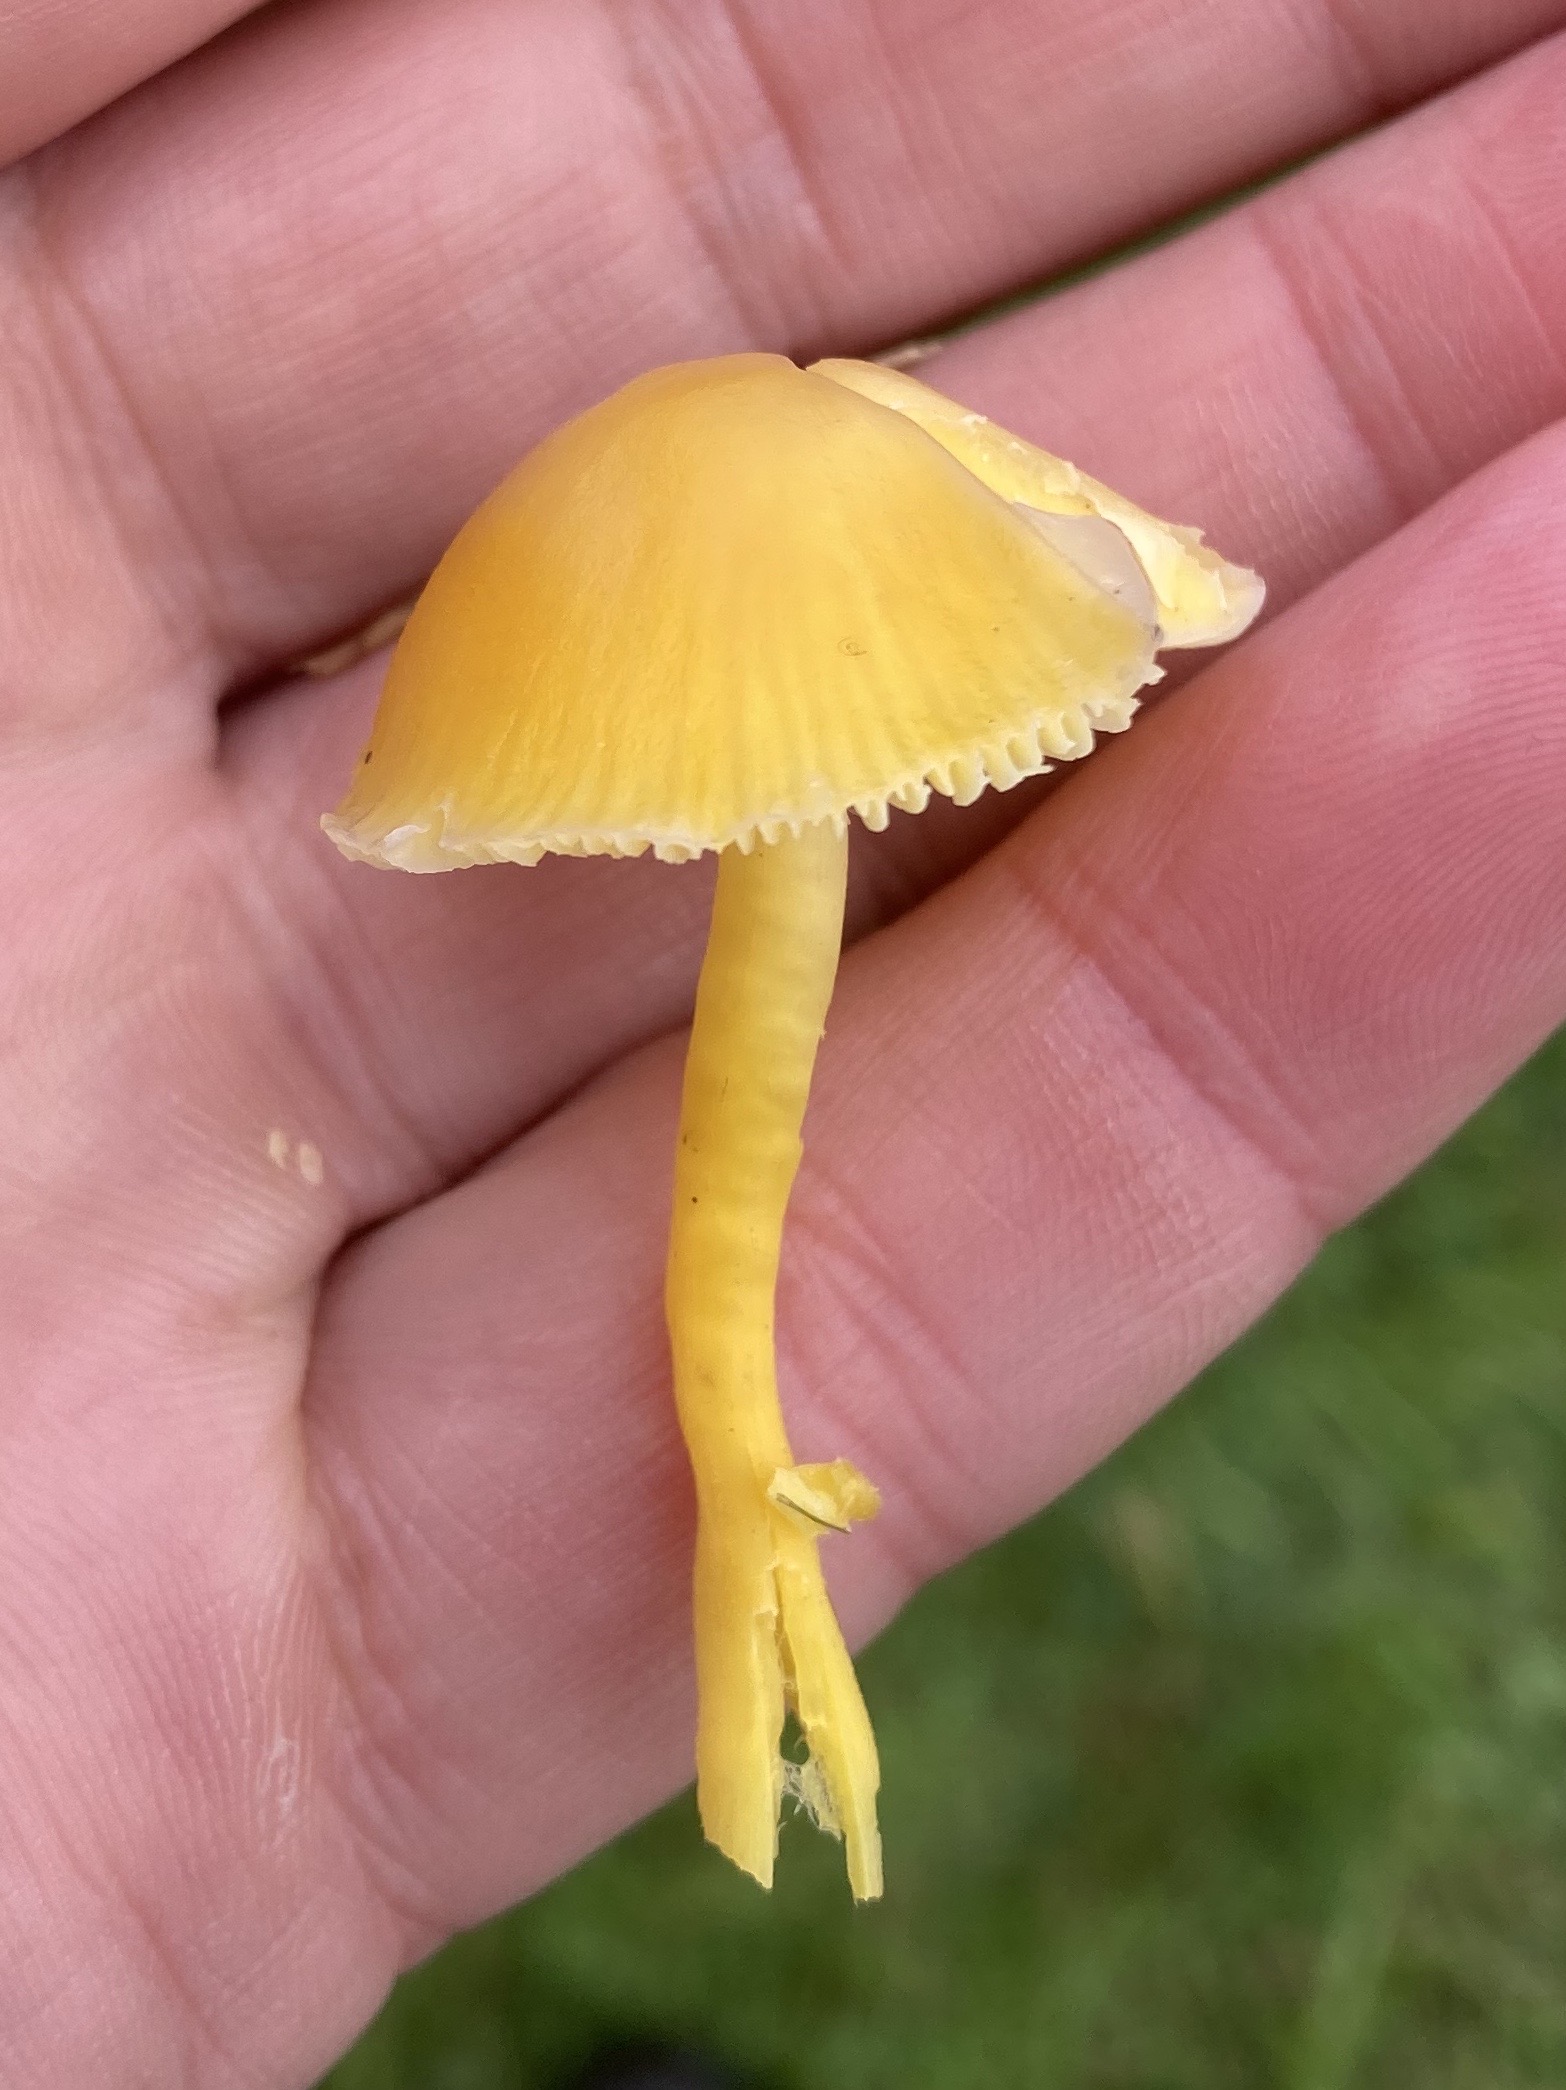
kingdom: Fungi
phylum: Basidiomycota
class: Agaricomycetes
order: Agaricales
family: Hygrophoraceae
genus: Hygrocybe
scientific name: Hygrocybe ceracea
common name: voksgul vokshat
